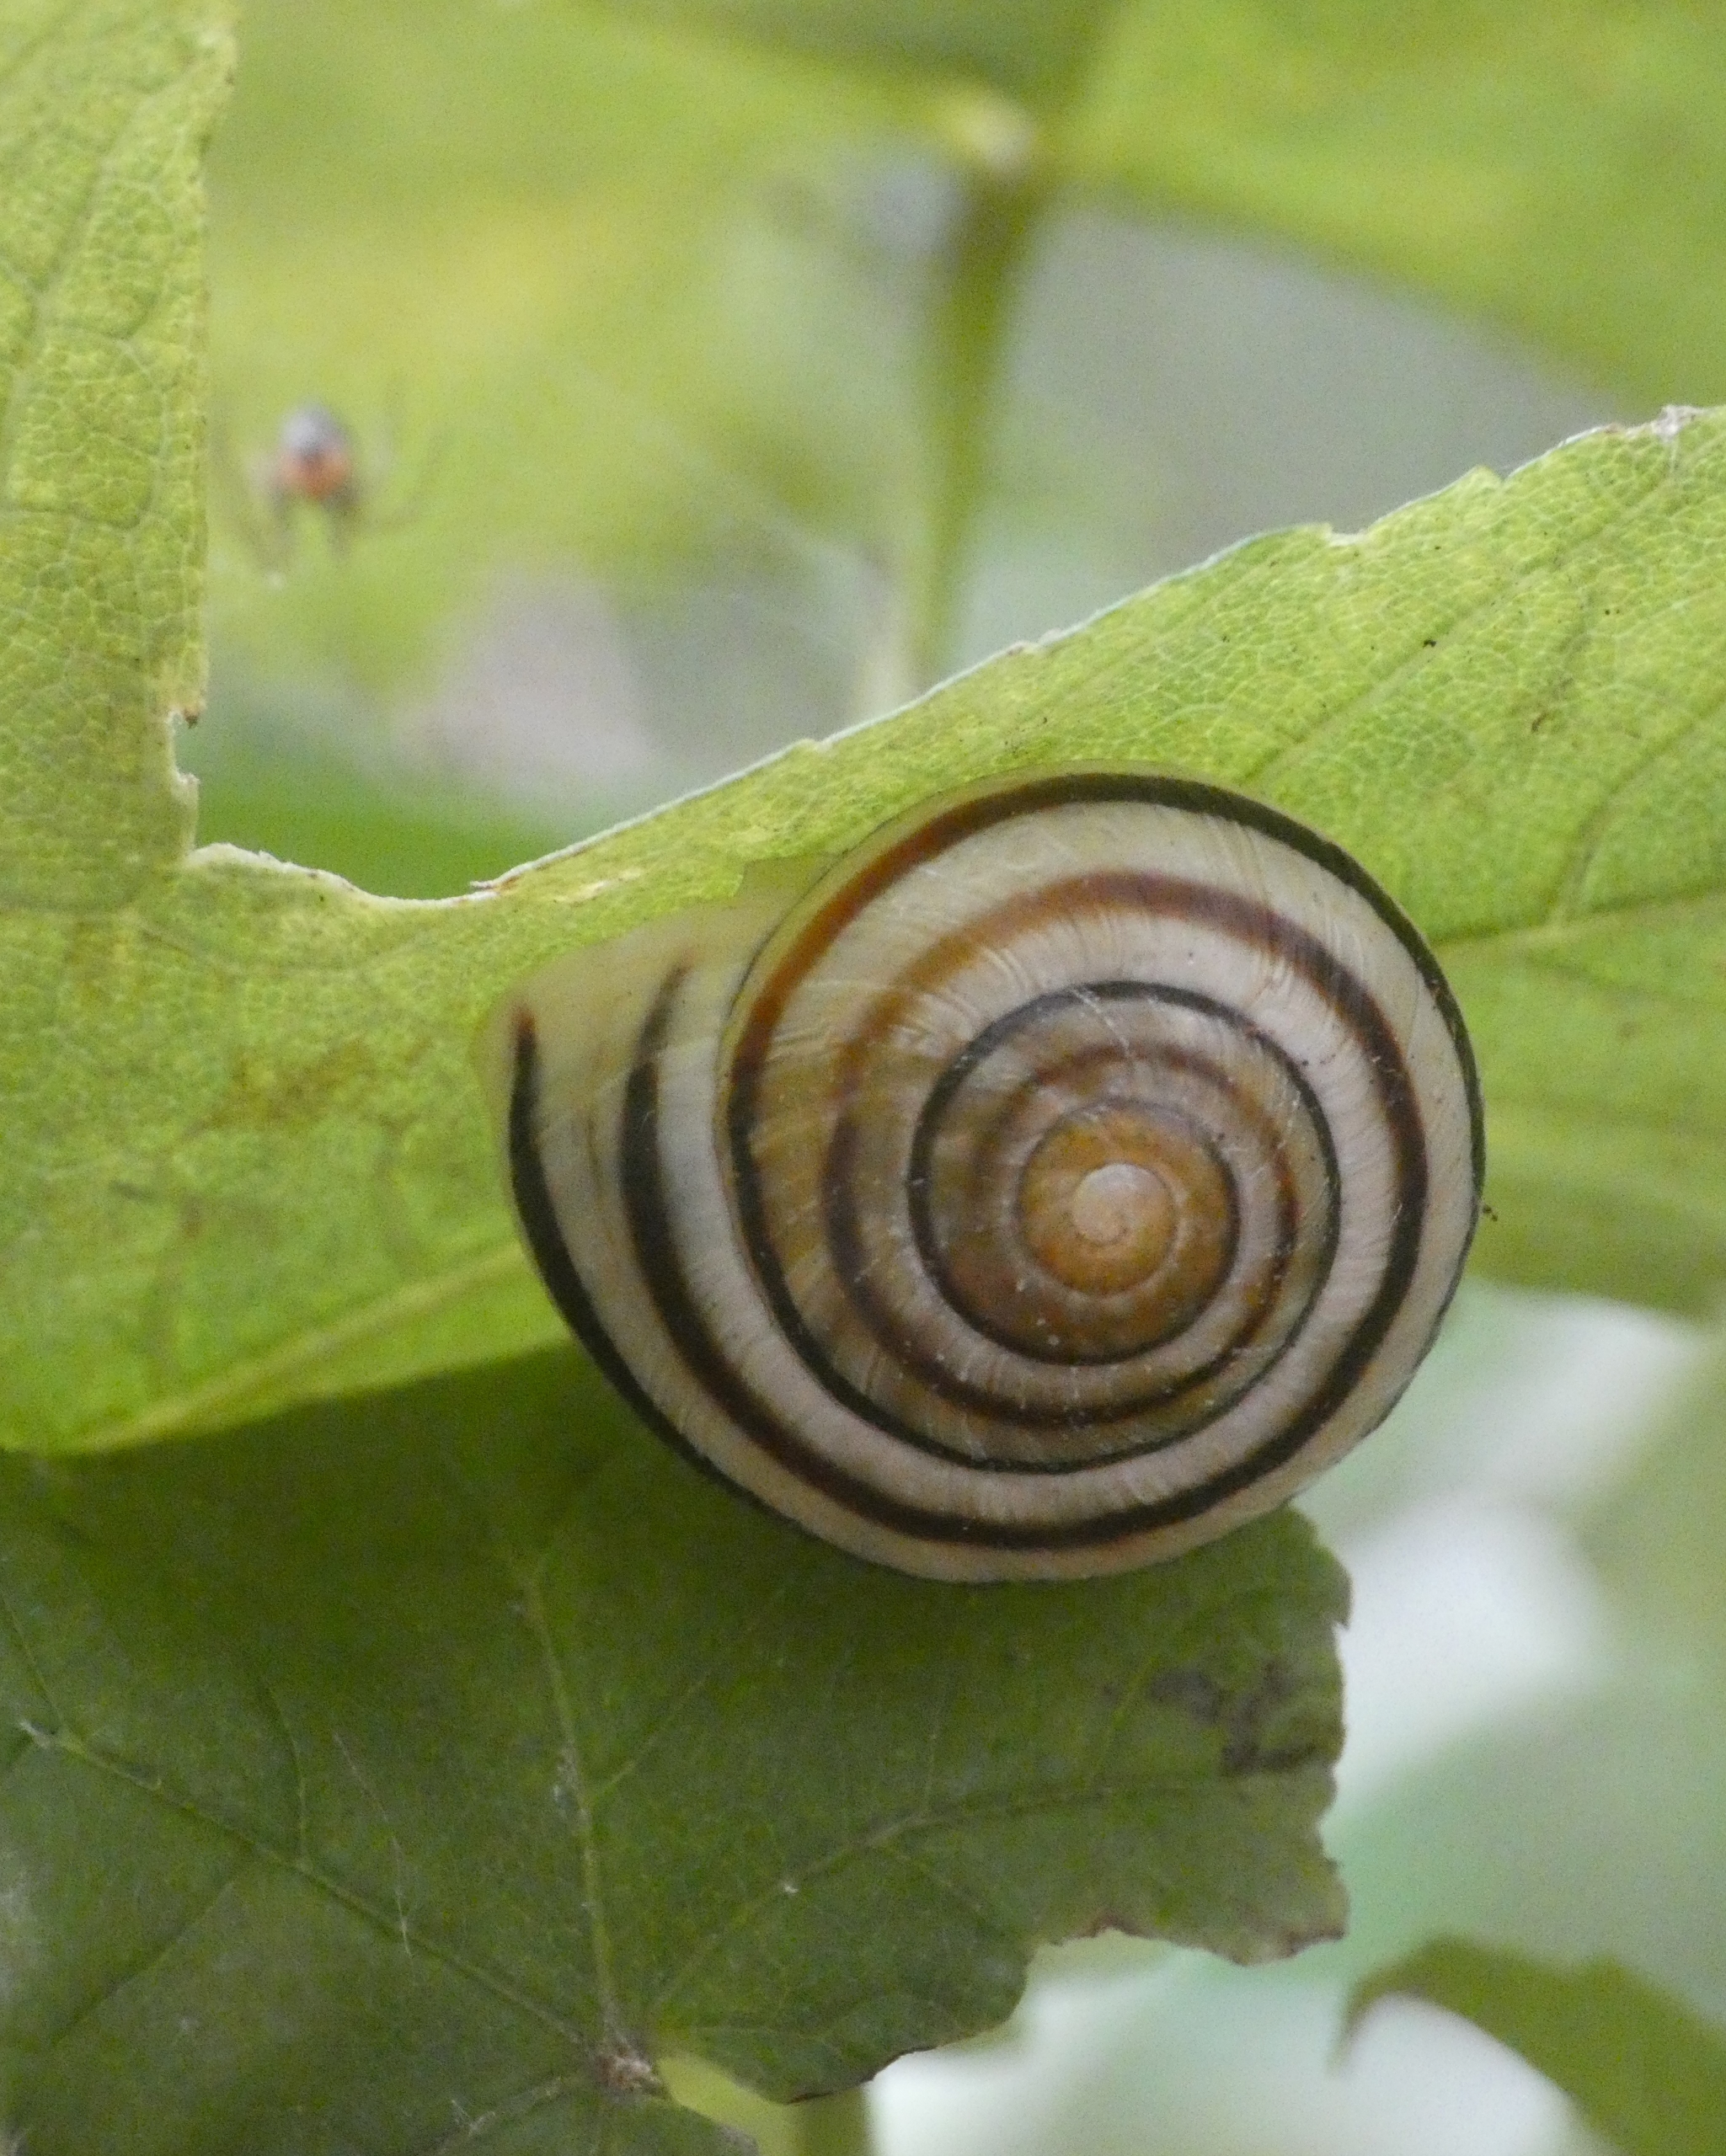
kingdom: Animalia
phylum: Mollusca
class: Gastropoda
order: Stylommatophora
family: Helicidae
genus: Cepaea
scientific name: Cepaea hortensis
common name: Havesnegl
